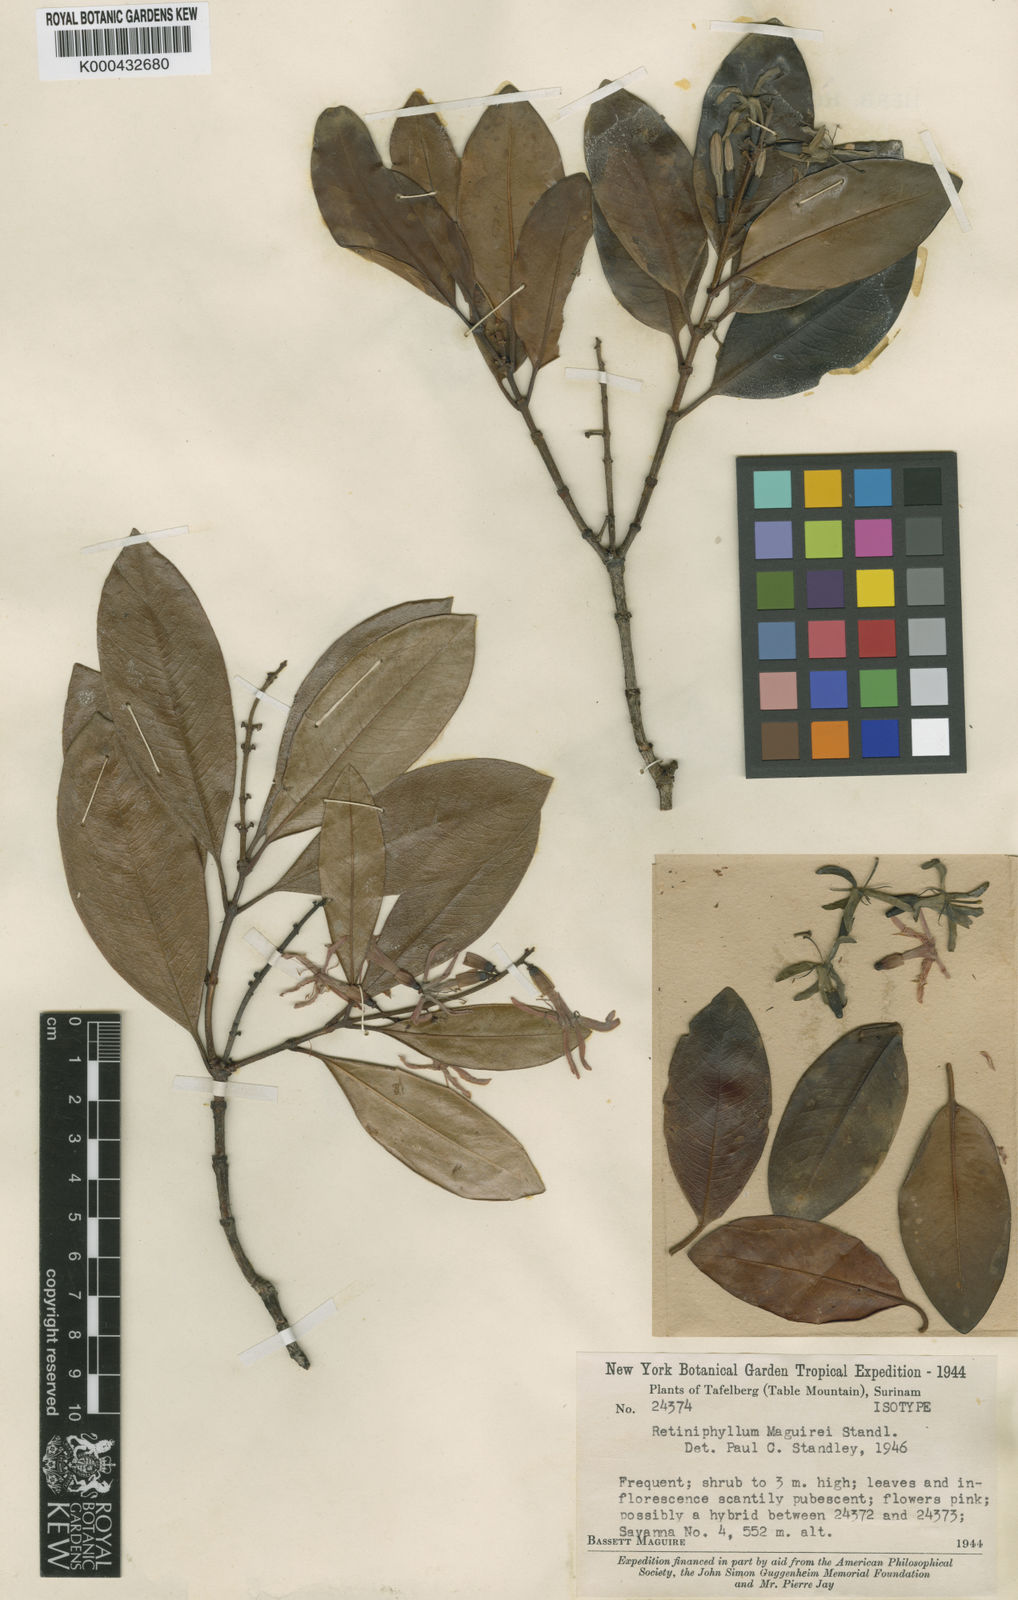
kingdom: Plantae
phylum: Tracheophyta
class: Magnoliopsida
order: Gentianales
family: Rubiaceae
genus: Retiniphyllum
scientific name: Retiniphyllum maguirei
